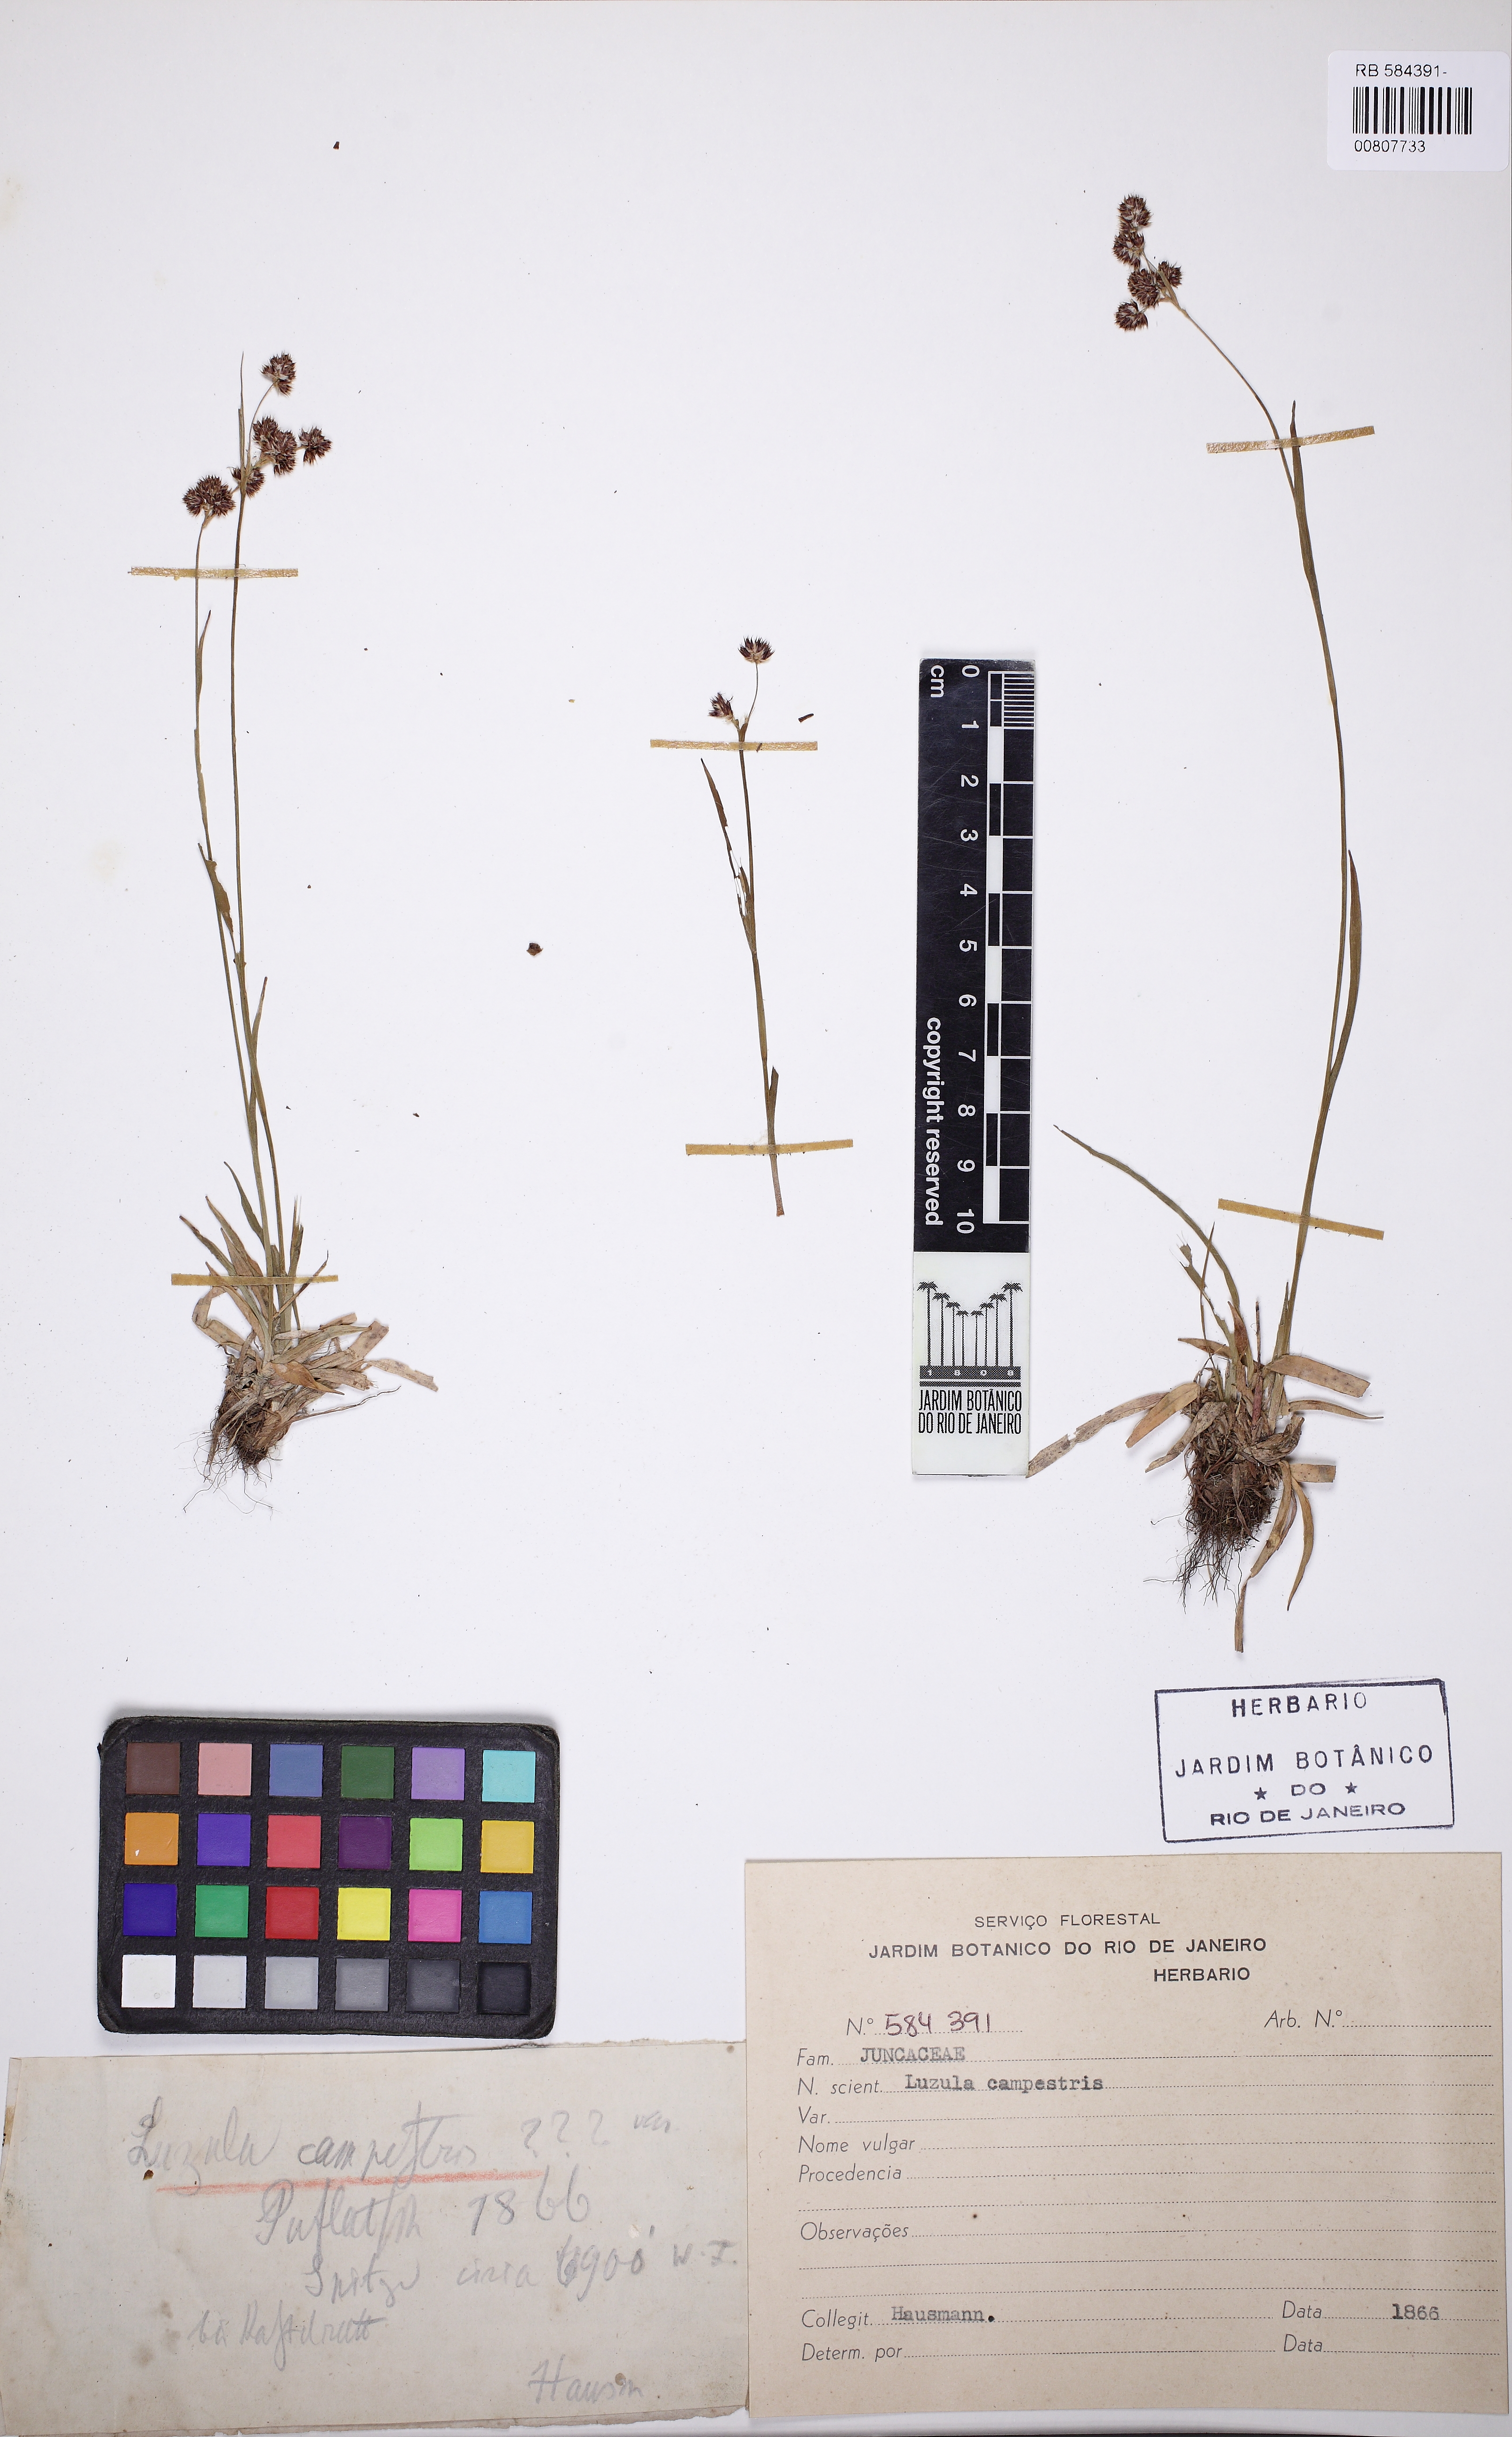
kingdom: Plantae
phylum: Tracheophyta
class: Liliopsida
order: Poales
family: Juncaceae
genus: Luzula
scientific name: Luzula campestris
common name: Field wood-rush
